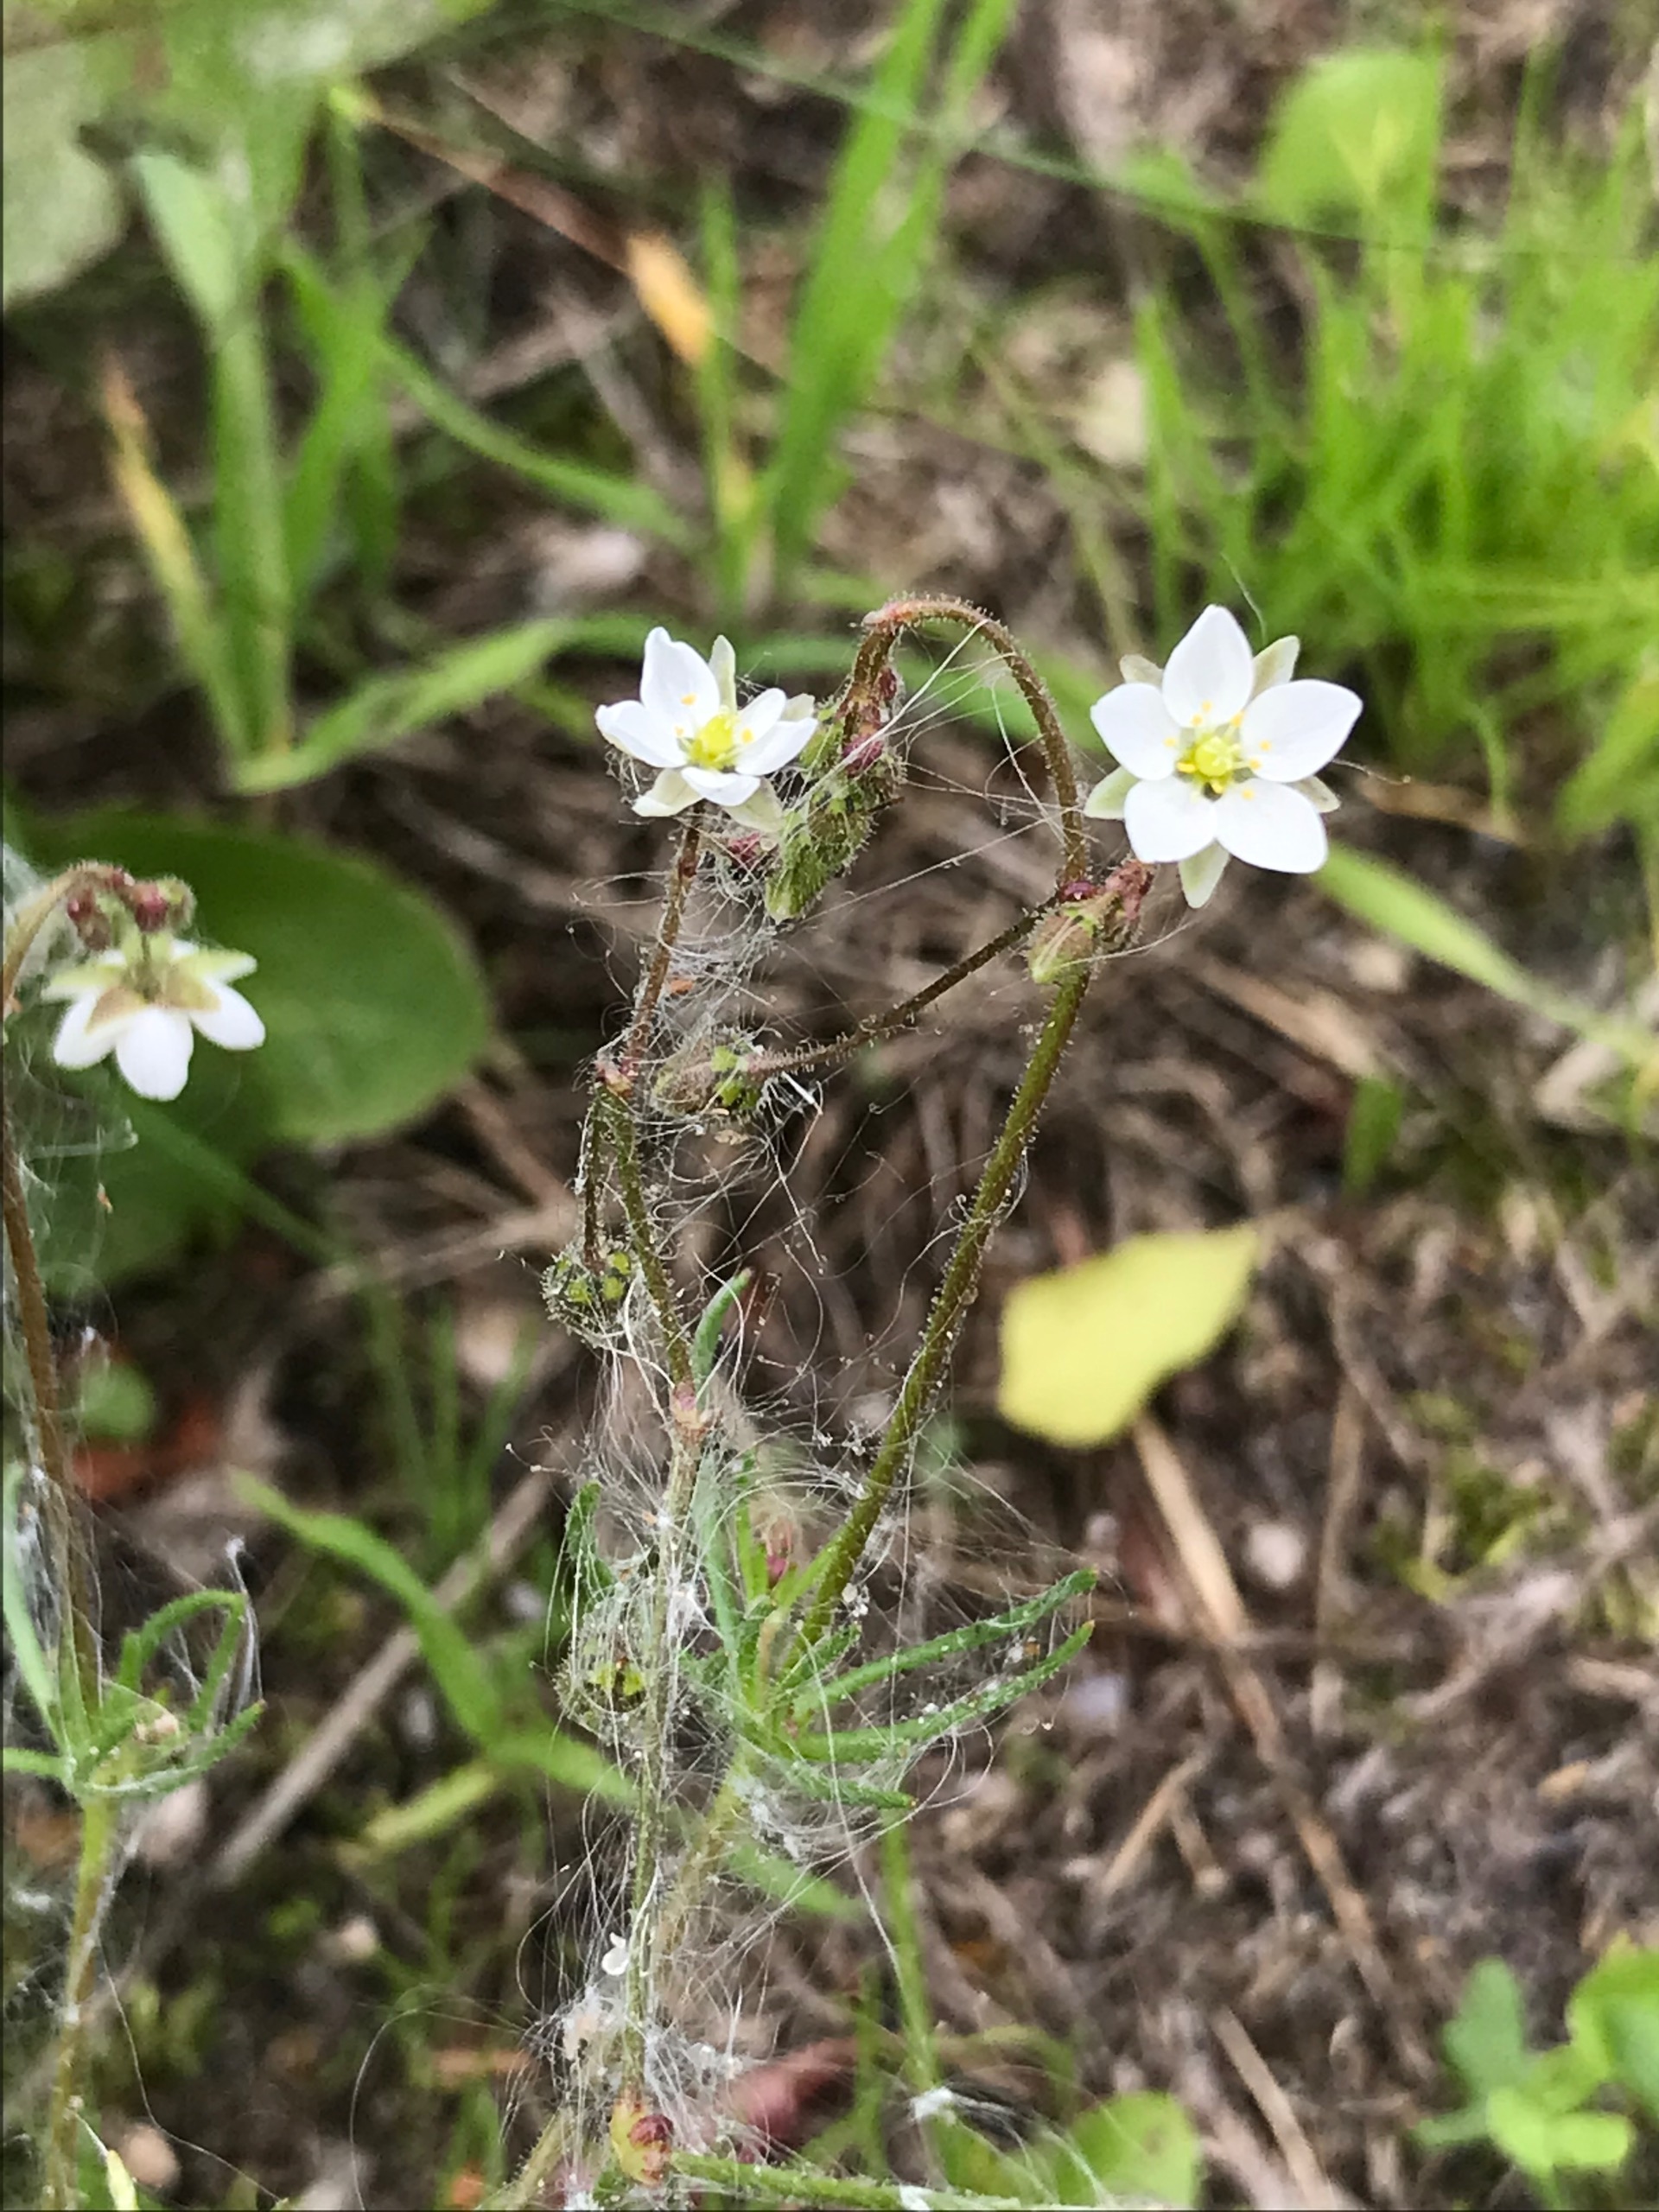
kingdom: Plantae
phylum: Tracheophyta
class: Magnoliopsida
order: Caryophyllales
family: Caryophyllaceae
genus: Spergula
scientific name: Spergula arvensis
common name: Almindelig spergel
